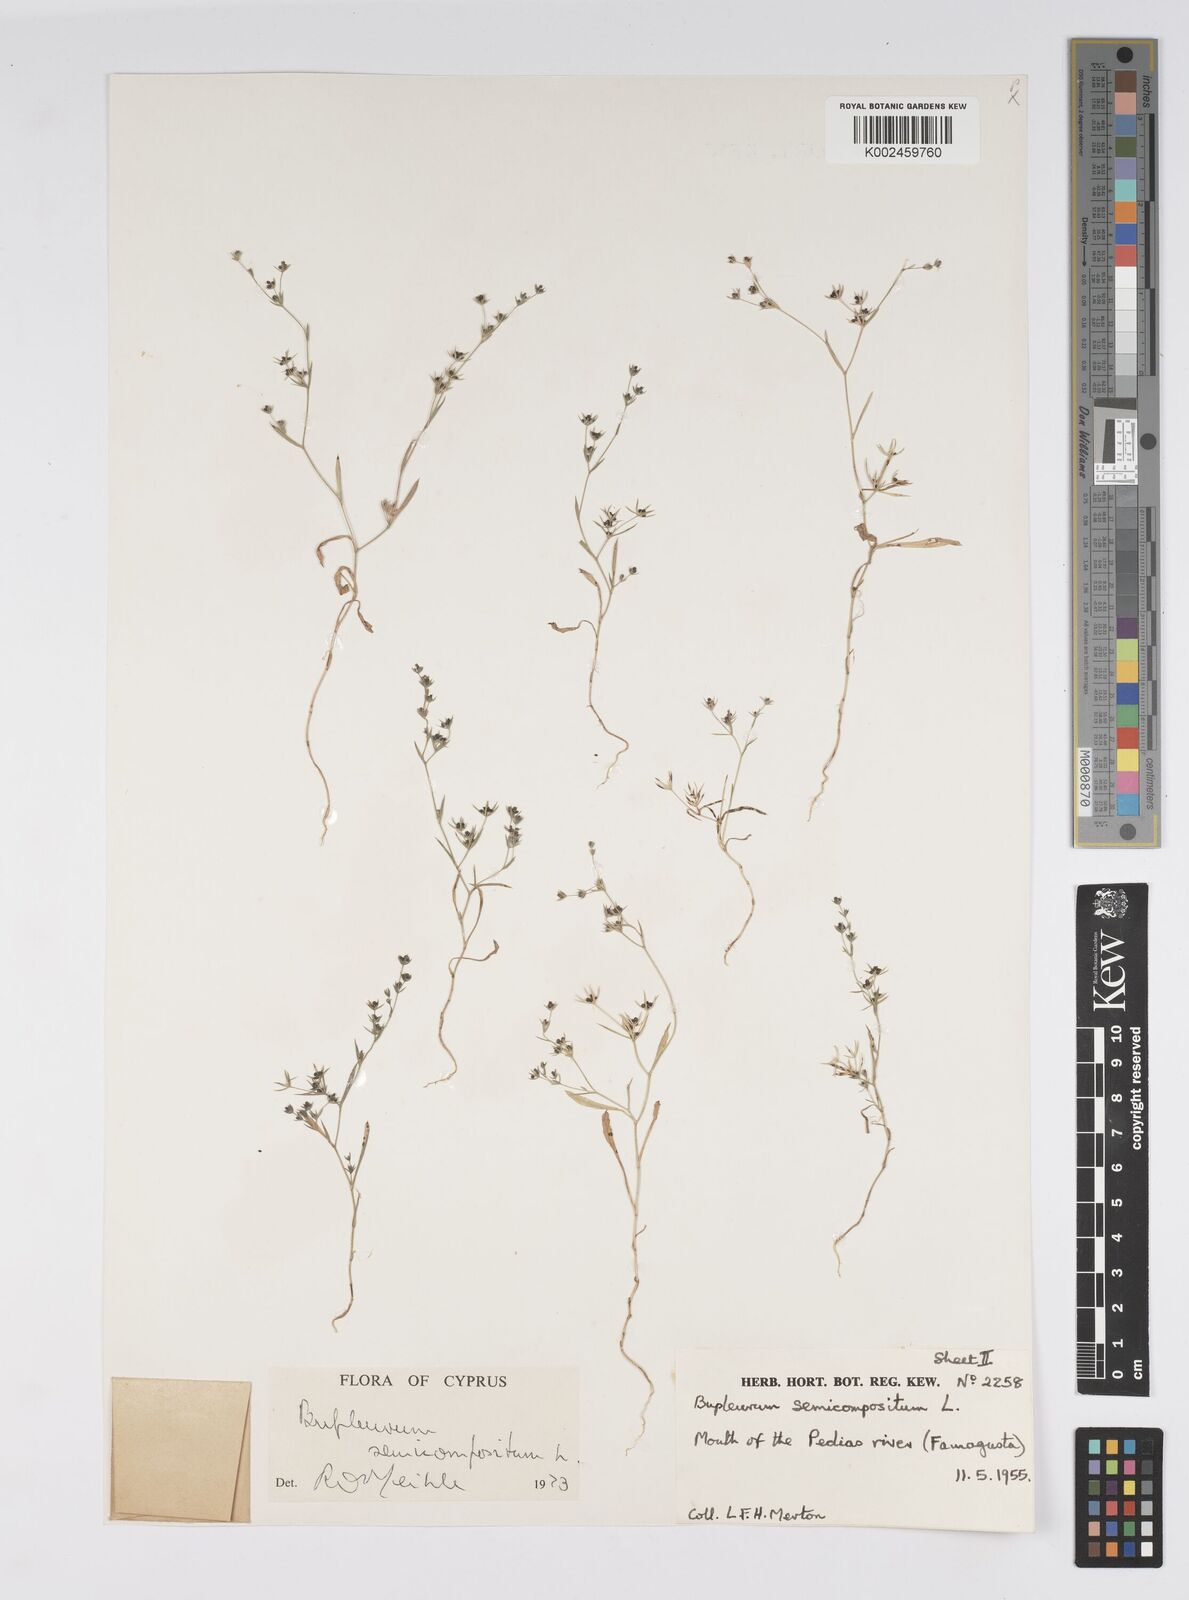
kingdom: Plantae
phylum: Tracheophyta
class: Magnoliopsida
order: Apiales
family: Apiaceae
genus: Bupleurum
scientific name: Bupleurum semicompositum
